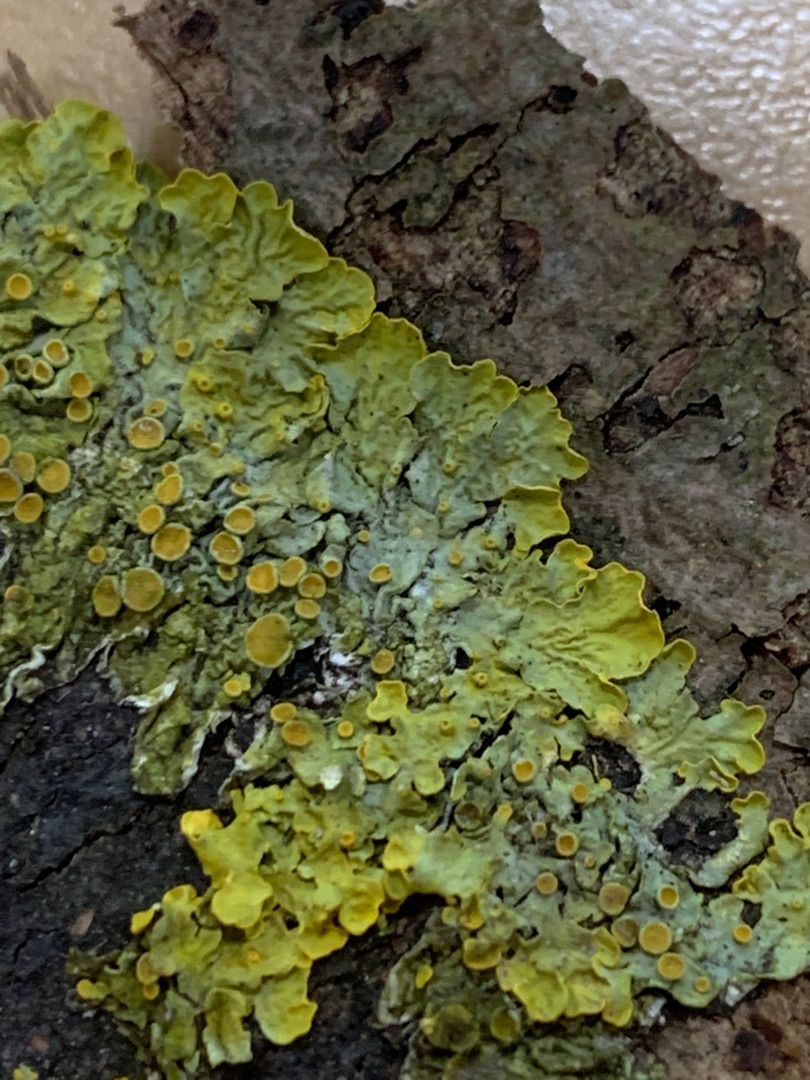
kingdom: Fungi
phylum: Ascomycota
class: Lecanoromycetes
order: Teloschistales
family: Teloschistaceae
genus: Xanthoria
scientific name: Xanthoria parietina
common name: Almindelig væggelav
